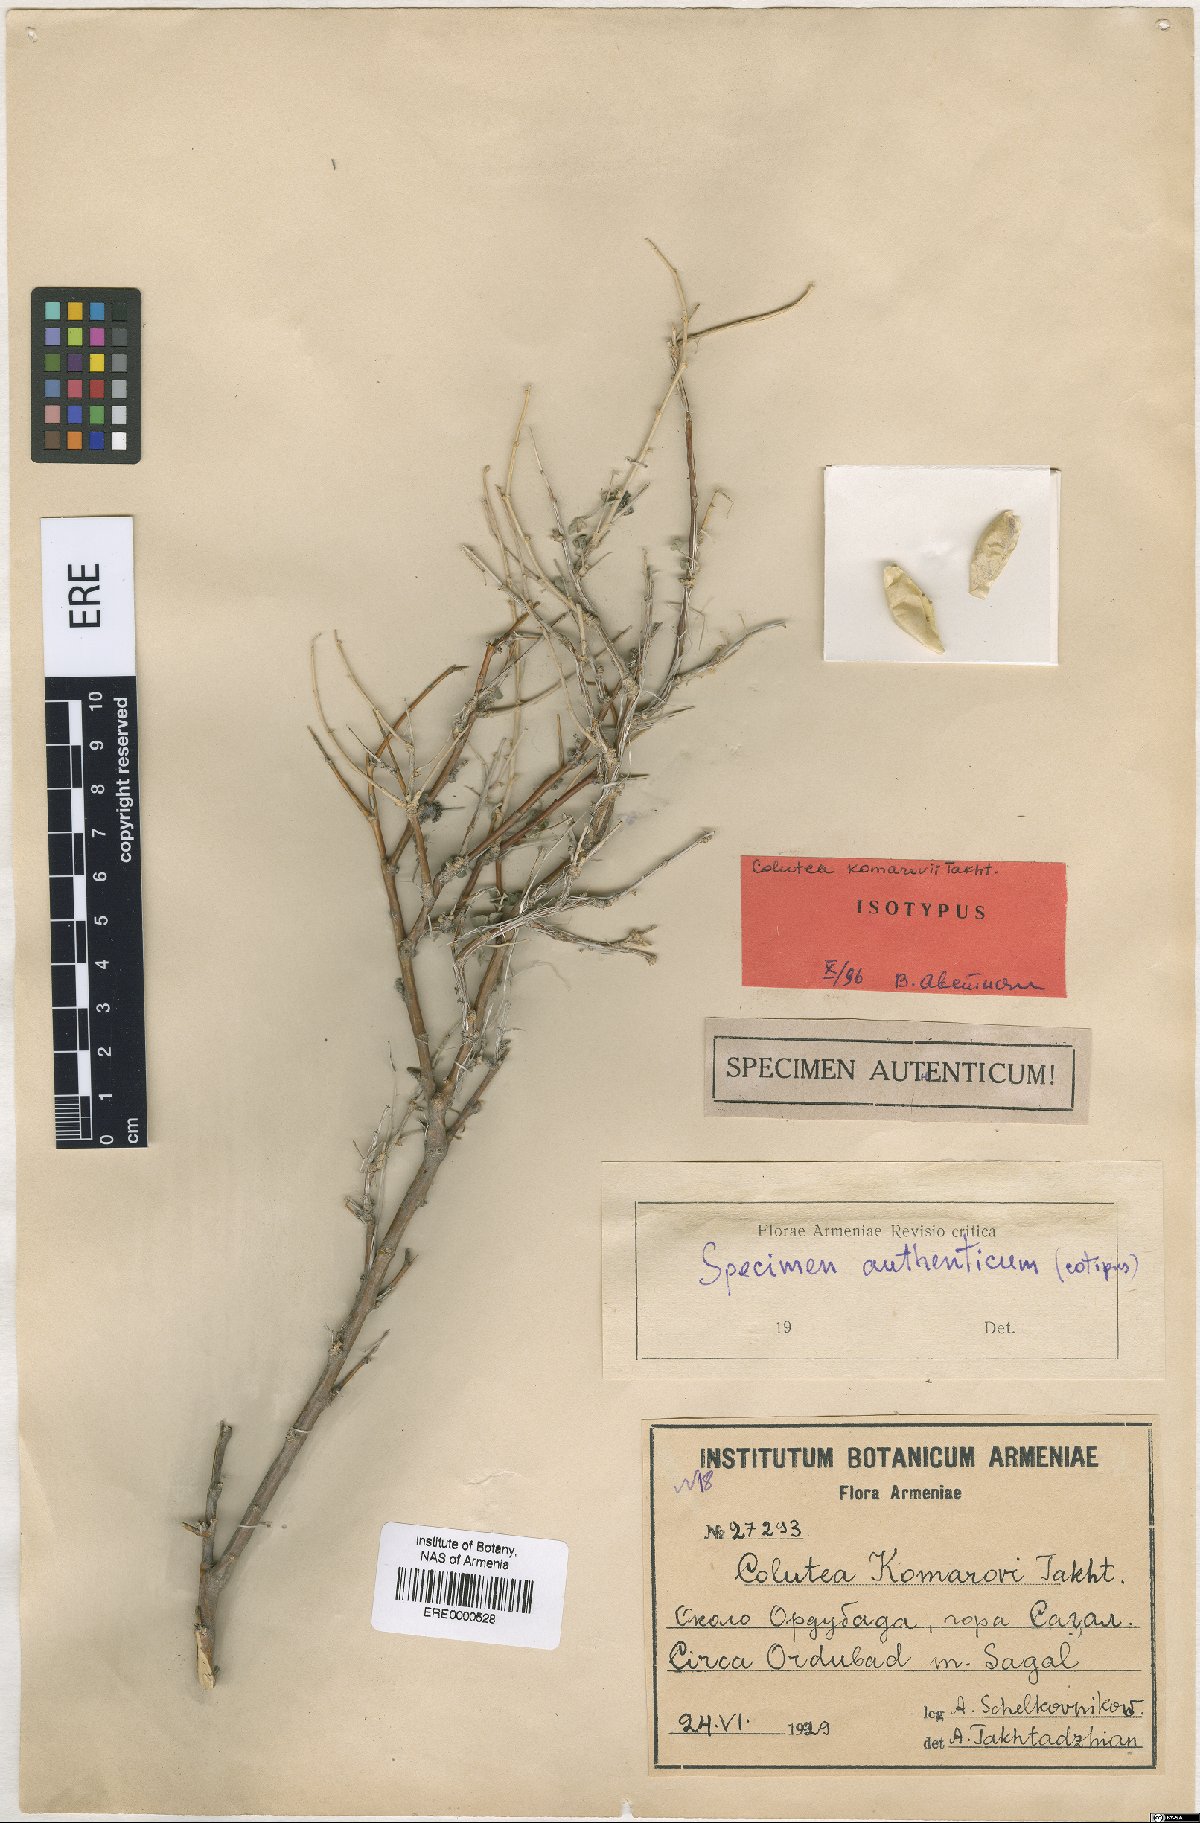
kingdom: Plantae
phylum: Tracheophyta
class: Magnoliopsida
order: Fabales
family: Fabaceae
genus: Colutea
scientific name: Colutea komarovii
